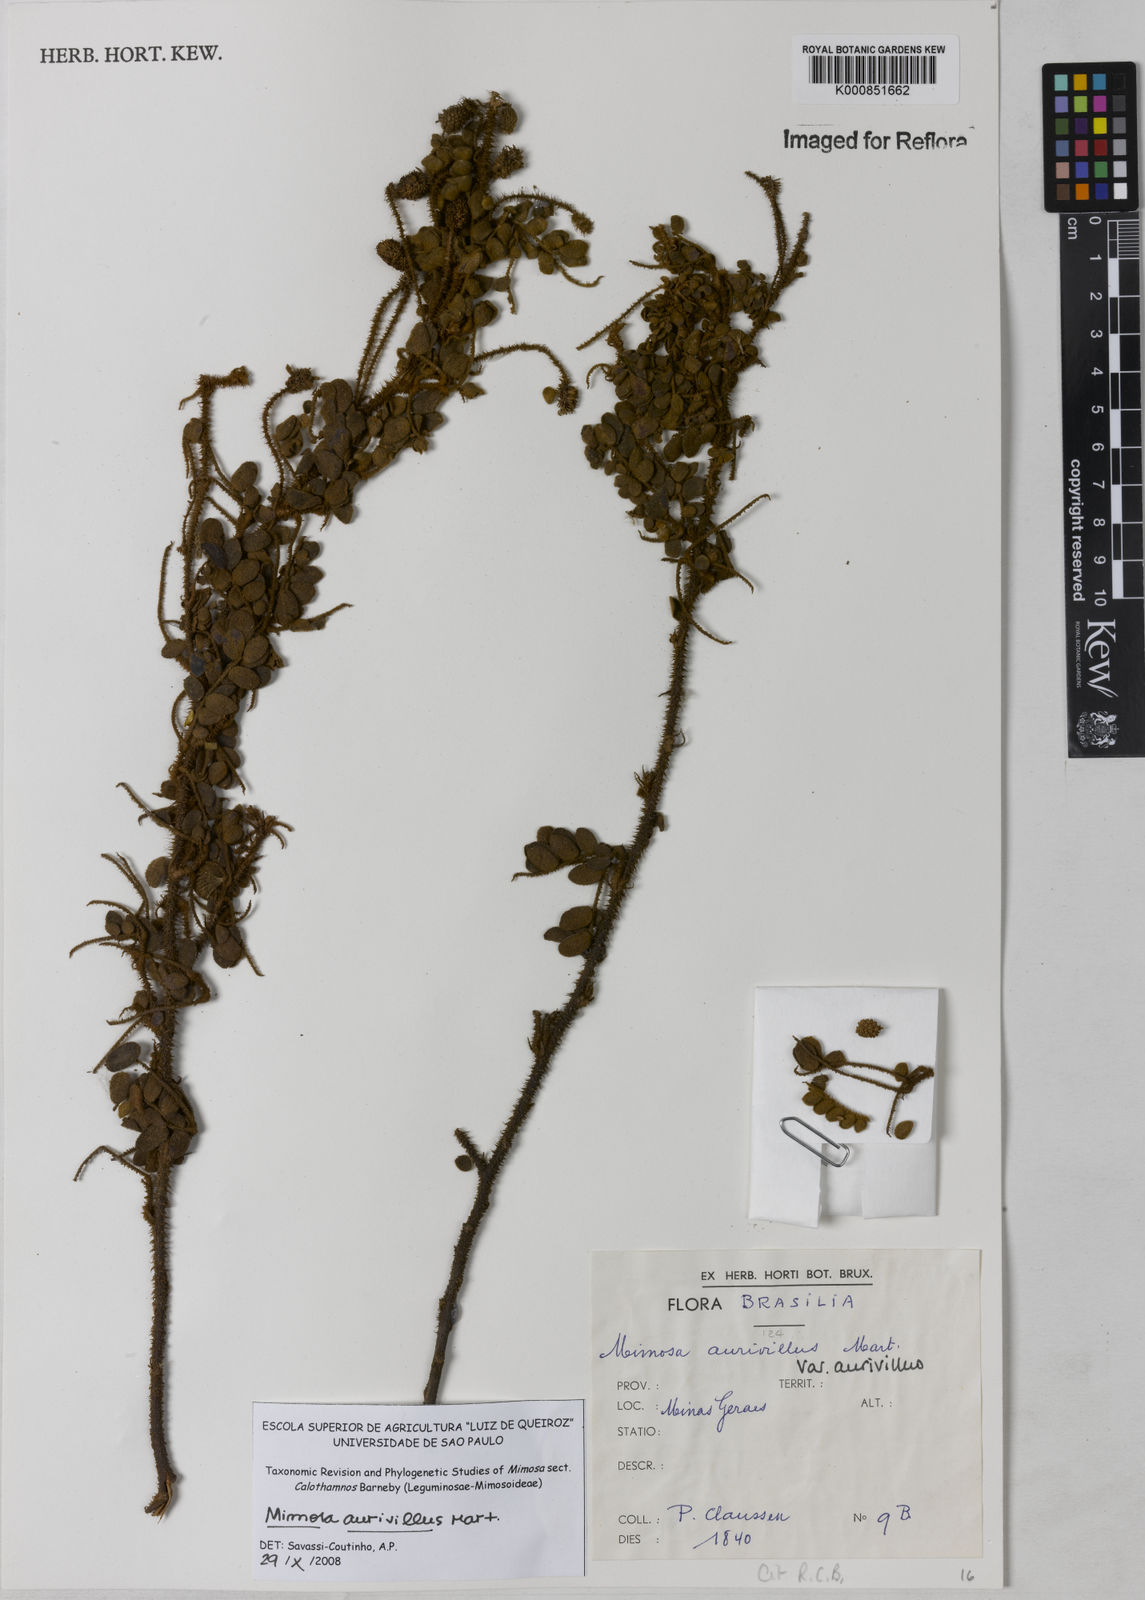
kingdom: Plantae
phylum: Tracheophyta
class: Magnoliopsida
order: Fabales
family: Fabaceae
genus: Mimosa
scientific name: Mimosa aurivillus
